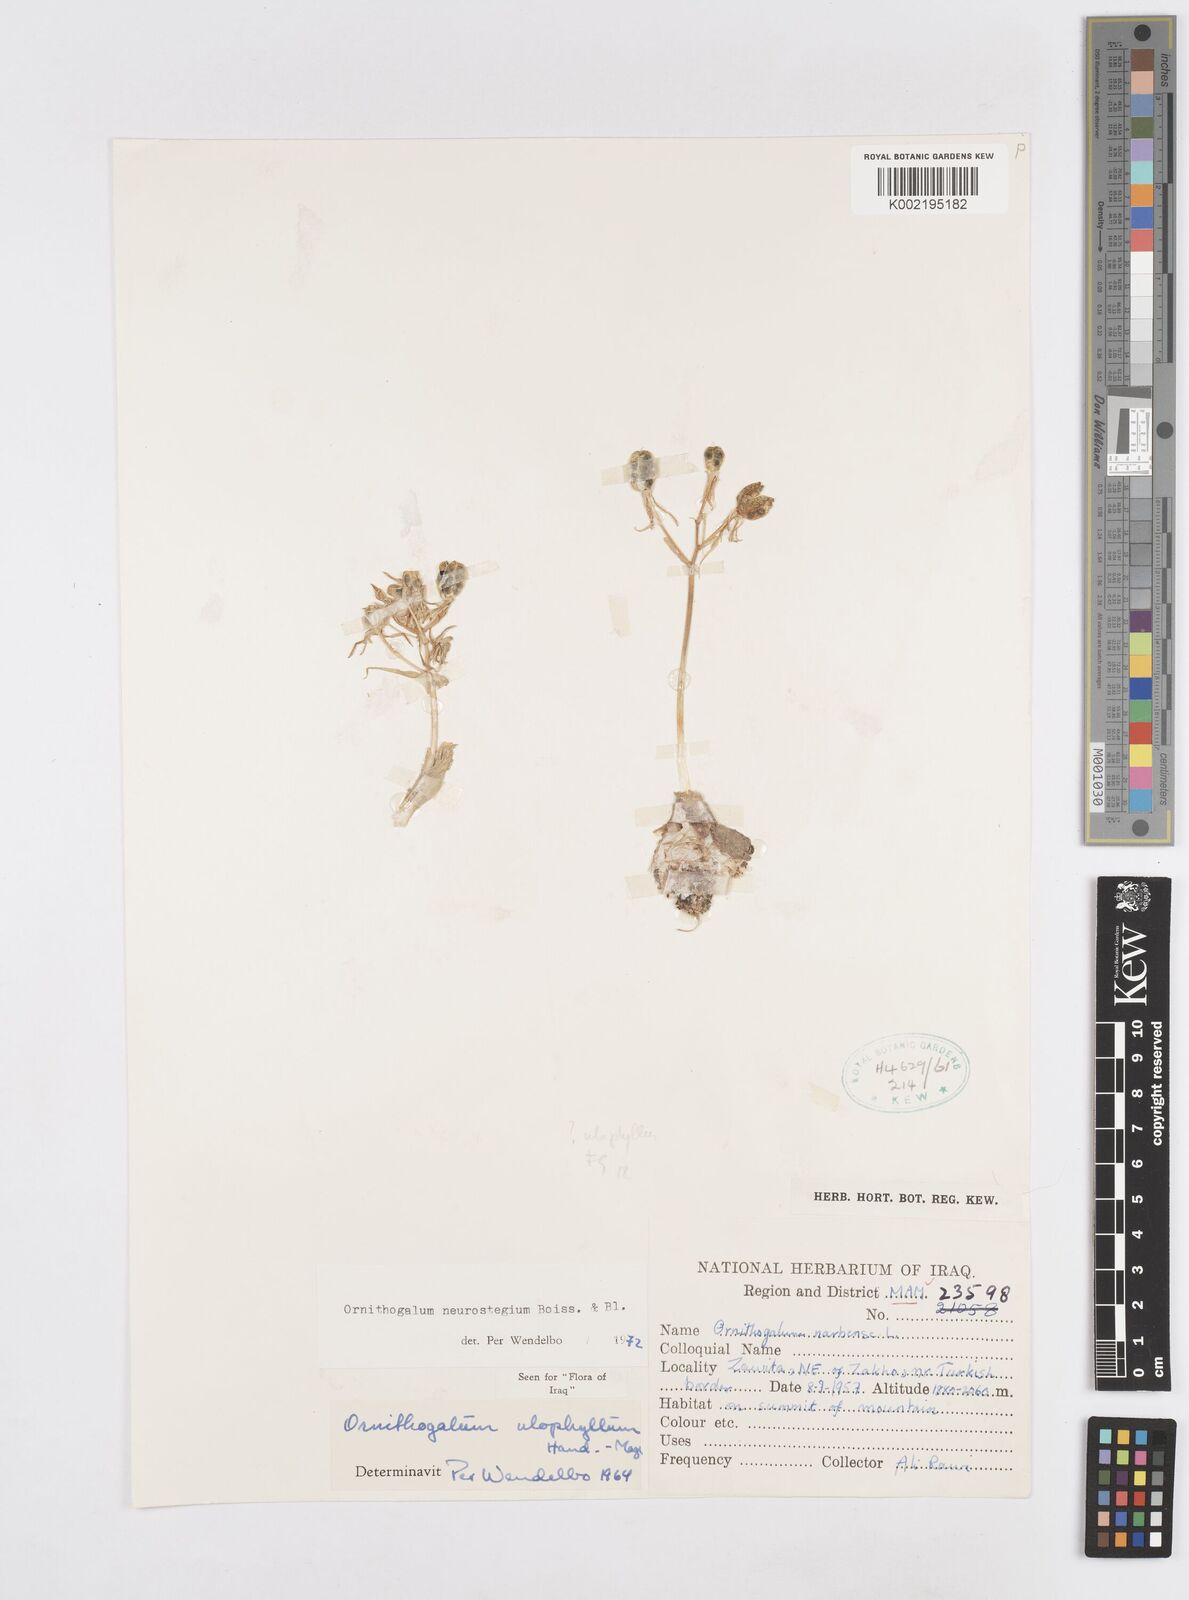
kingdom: Plantae
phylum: Tracheophyta
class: Liliopsida
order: Asparagales
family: Asparagaceae
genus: Ornithogalum
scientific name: Ornithogalum neurostegium
